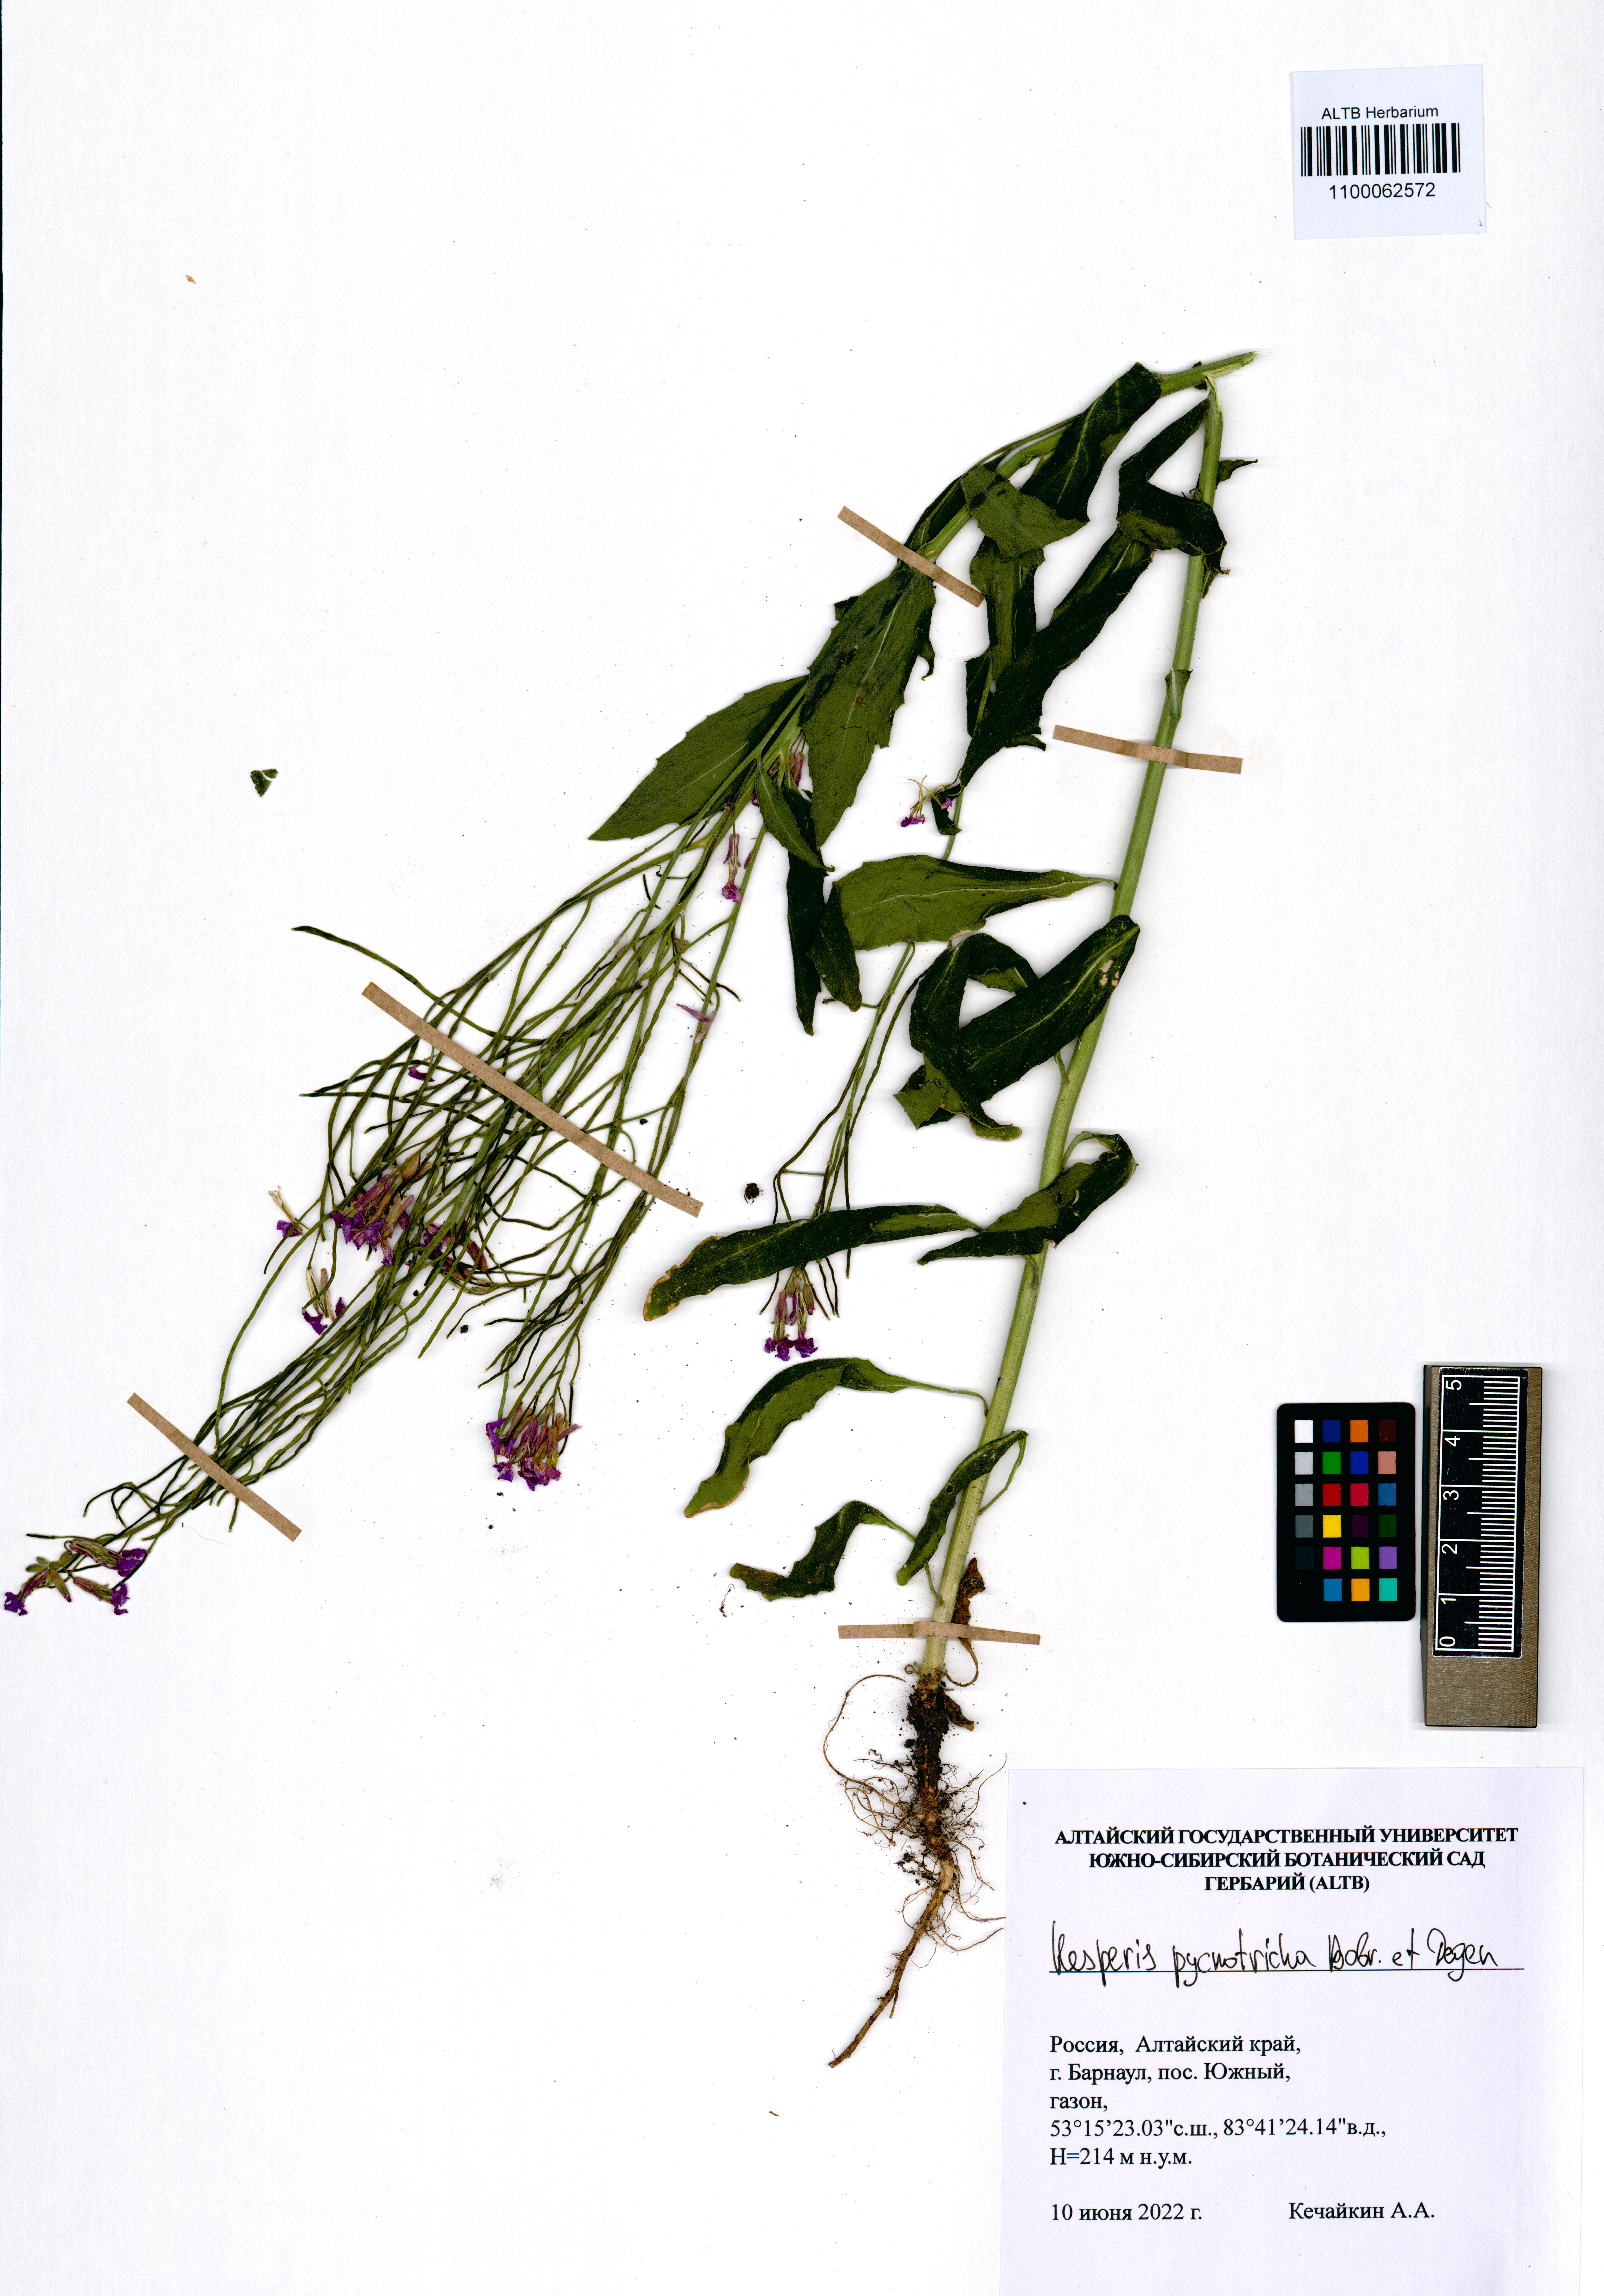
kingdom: Plantae
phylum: Tracheophyta
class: Magnoliopsida
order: Brassicales
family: Brassicaceae
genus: Hesperis
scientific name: Hesperis pycnotricha
